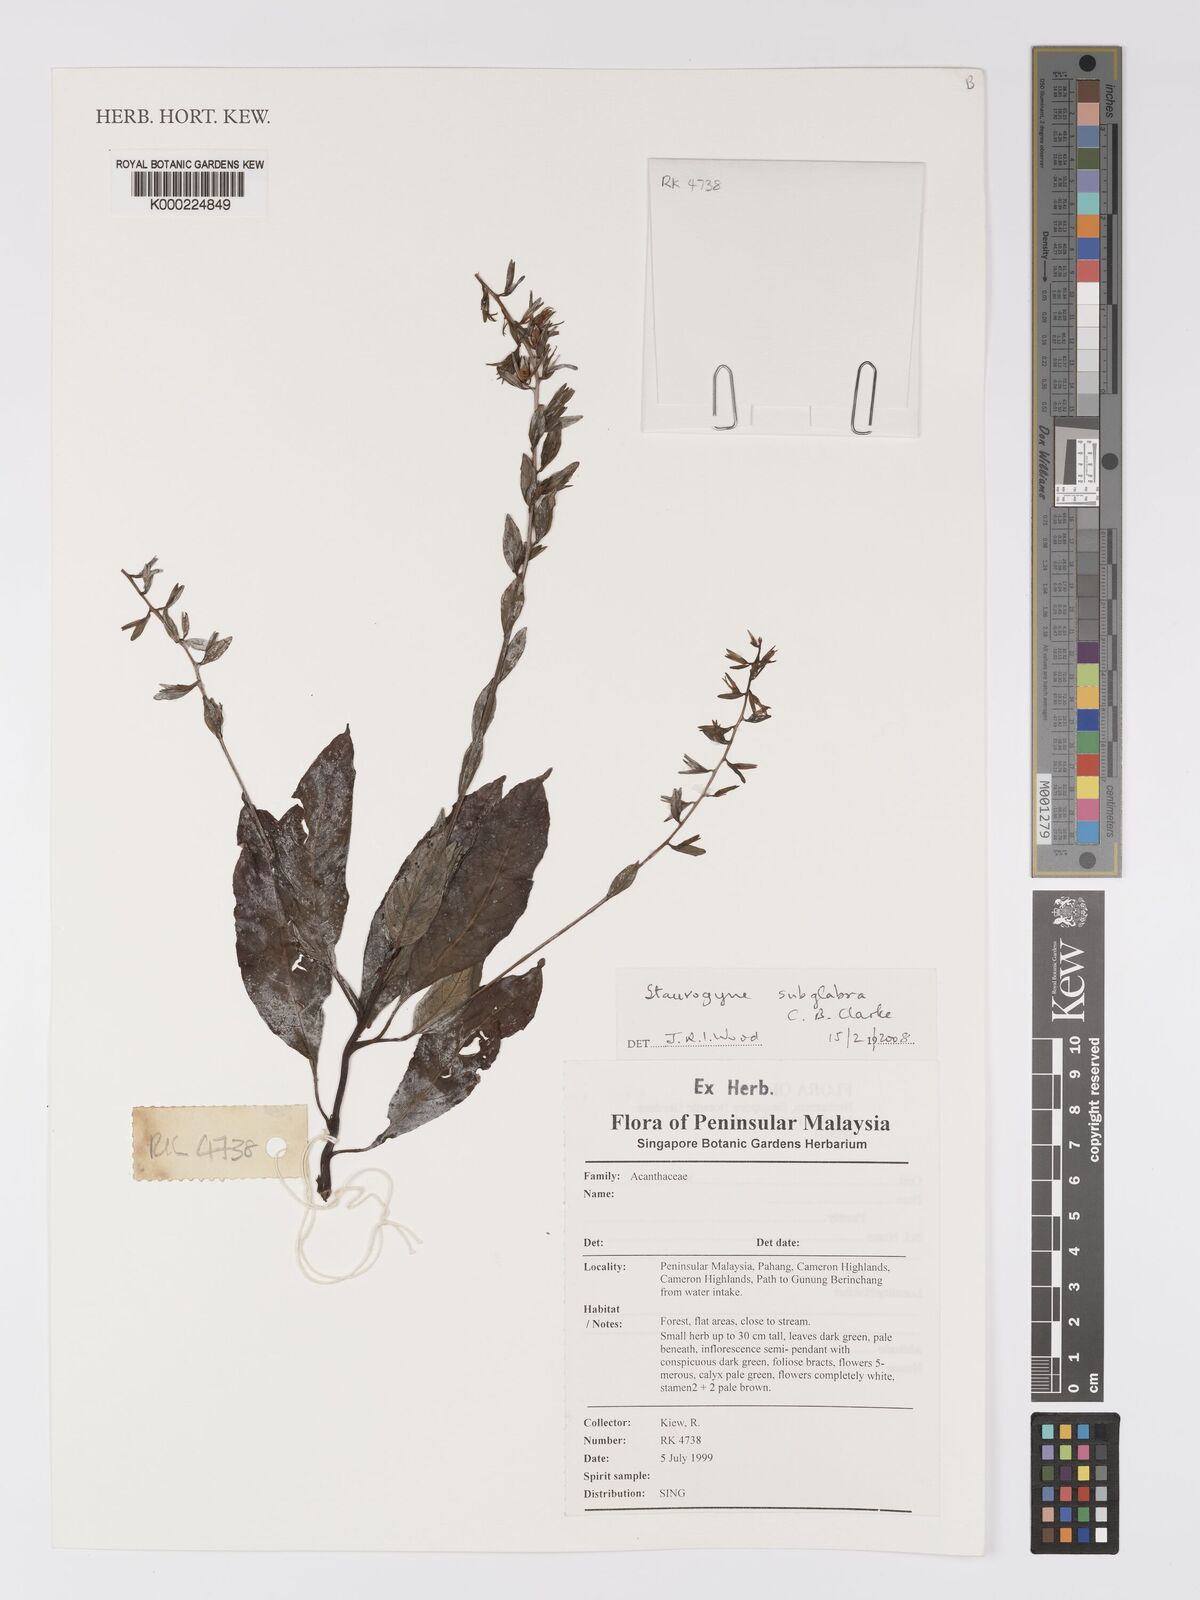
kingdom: Plantae
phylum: Tracheophyta
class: Magnoliopsida
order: Lamiales
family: Acanthaceae
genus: Staurogyne
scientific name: Staurogyne subglabra
